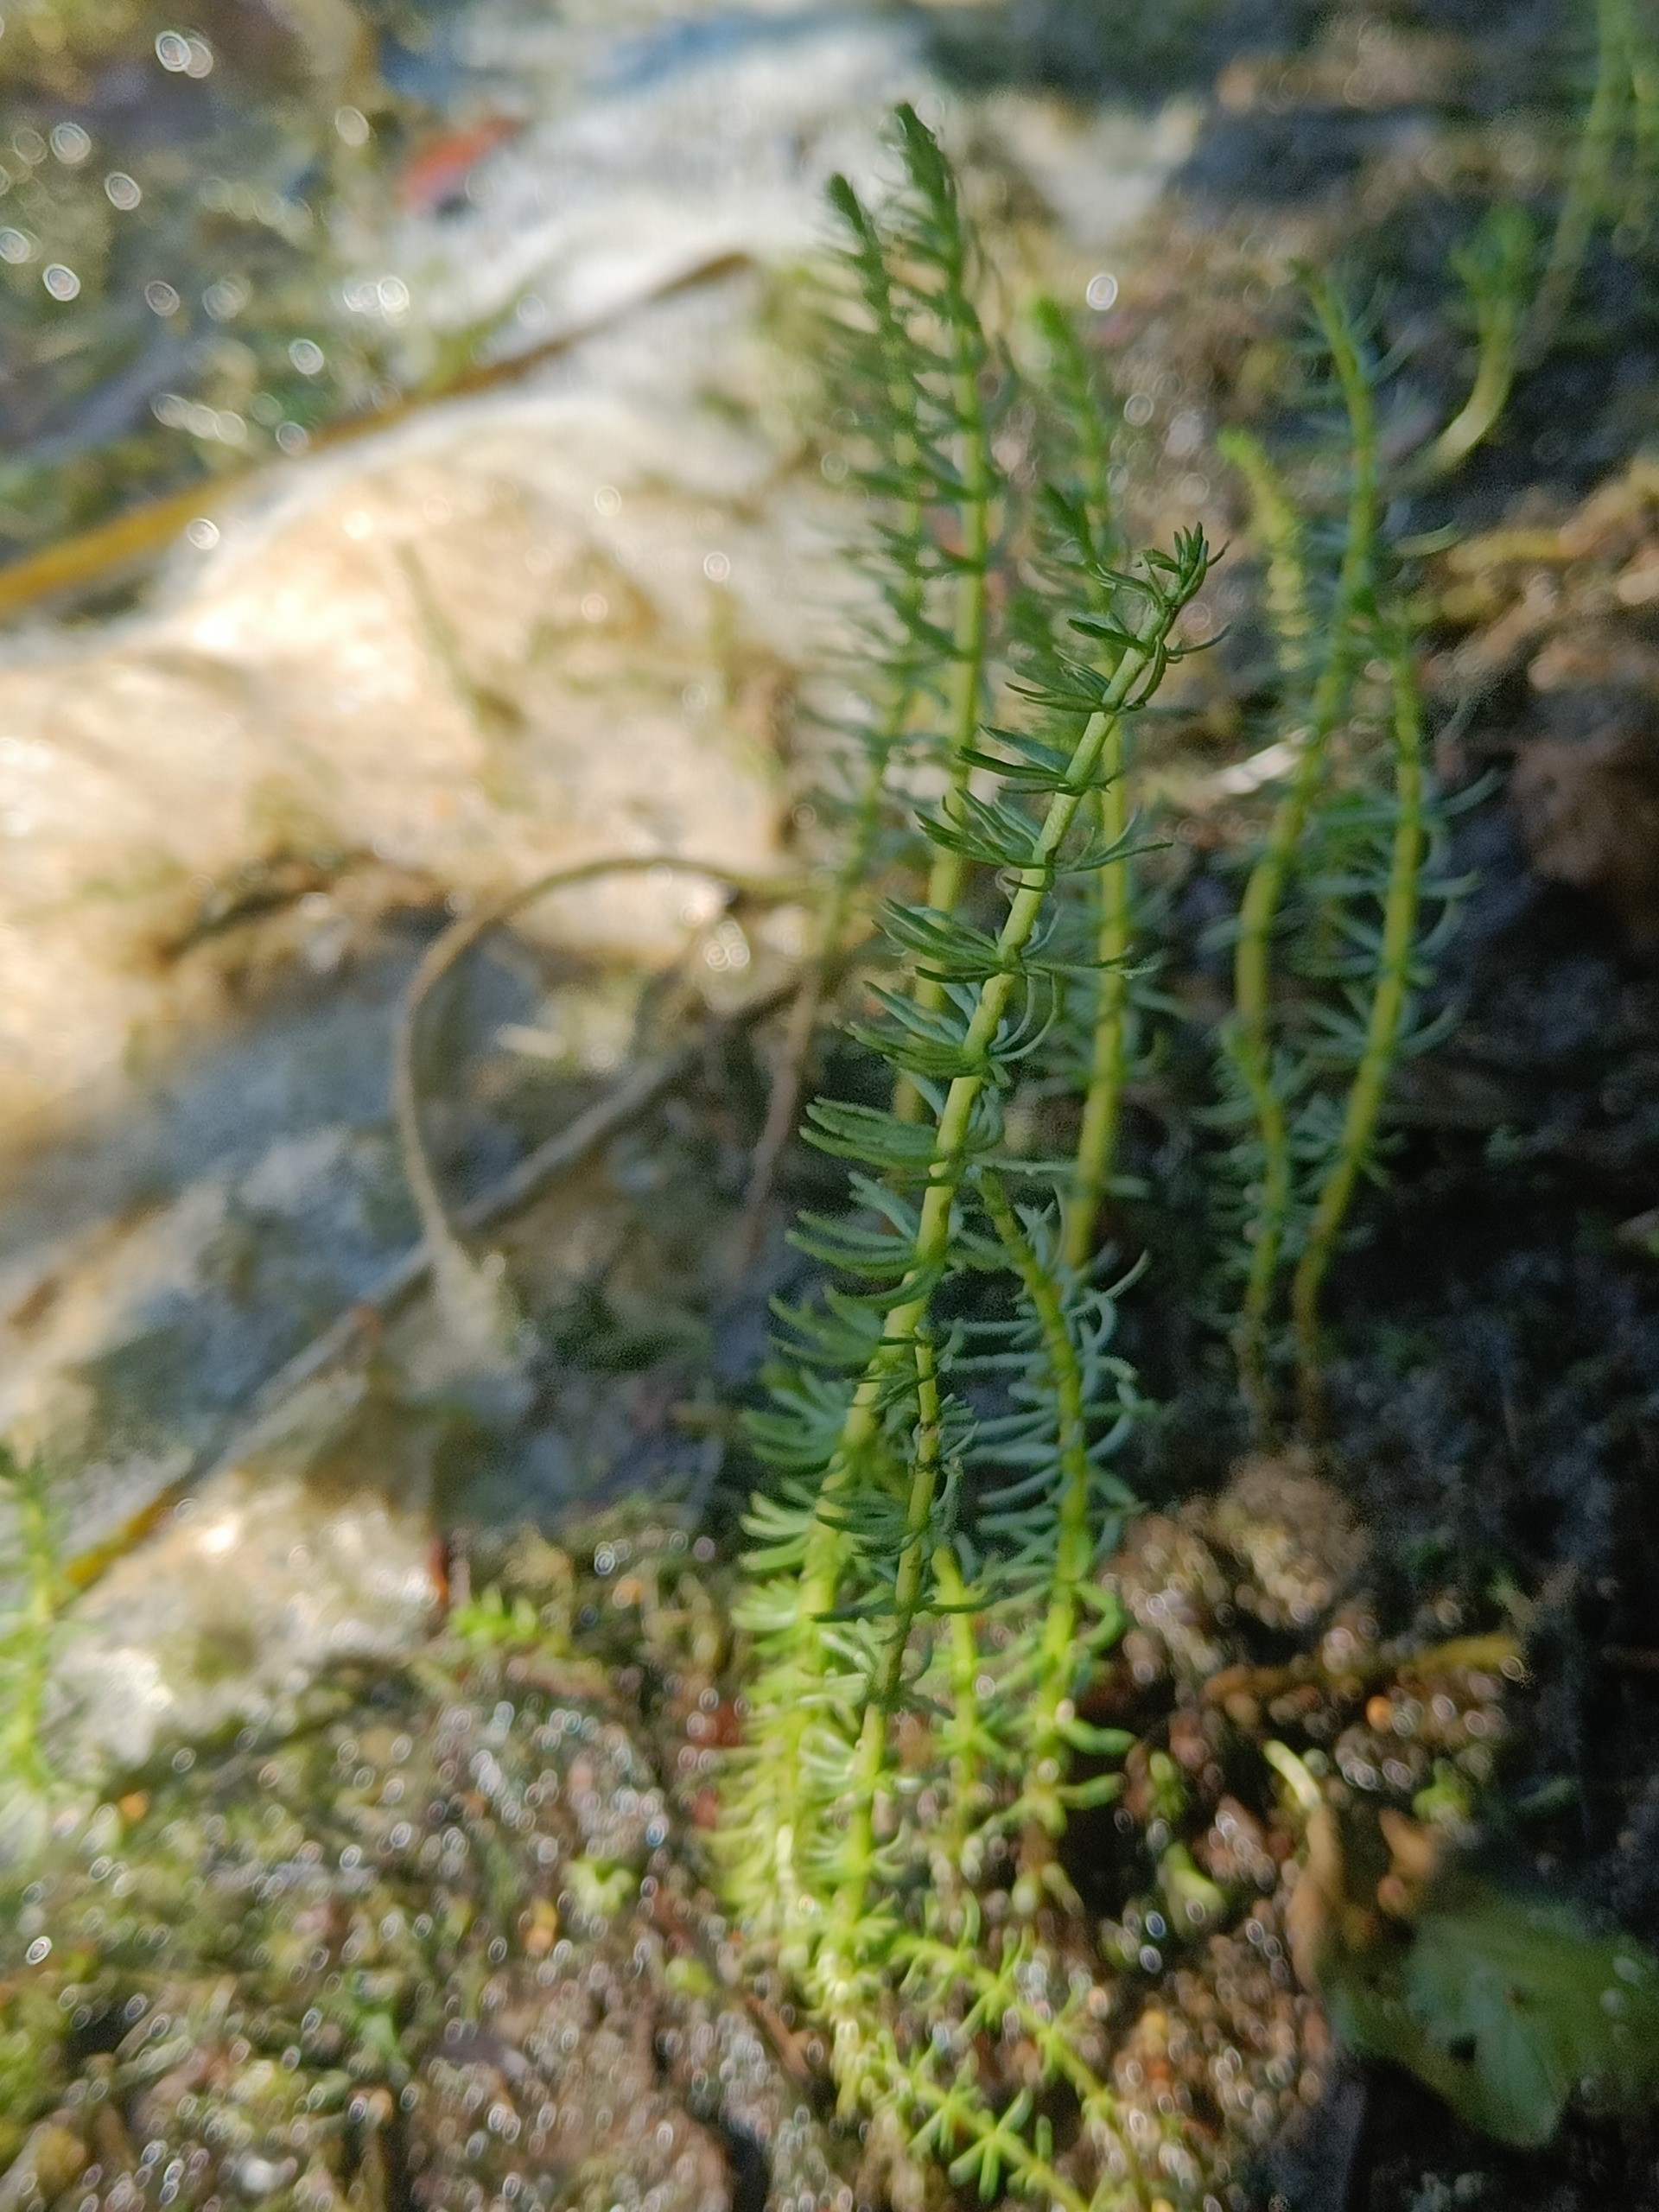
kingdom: Plantae
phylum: Tracheophyta
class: Magnoliopsida
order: Lamiales
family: Plantaginaceae
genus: Hippuris
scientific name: Hippuris vulgaris
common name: Vandspir
